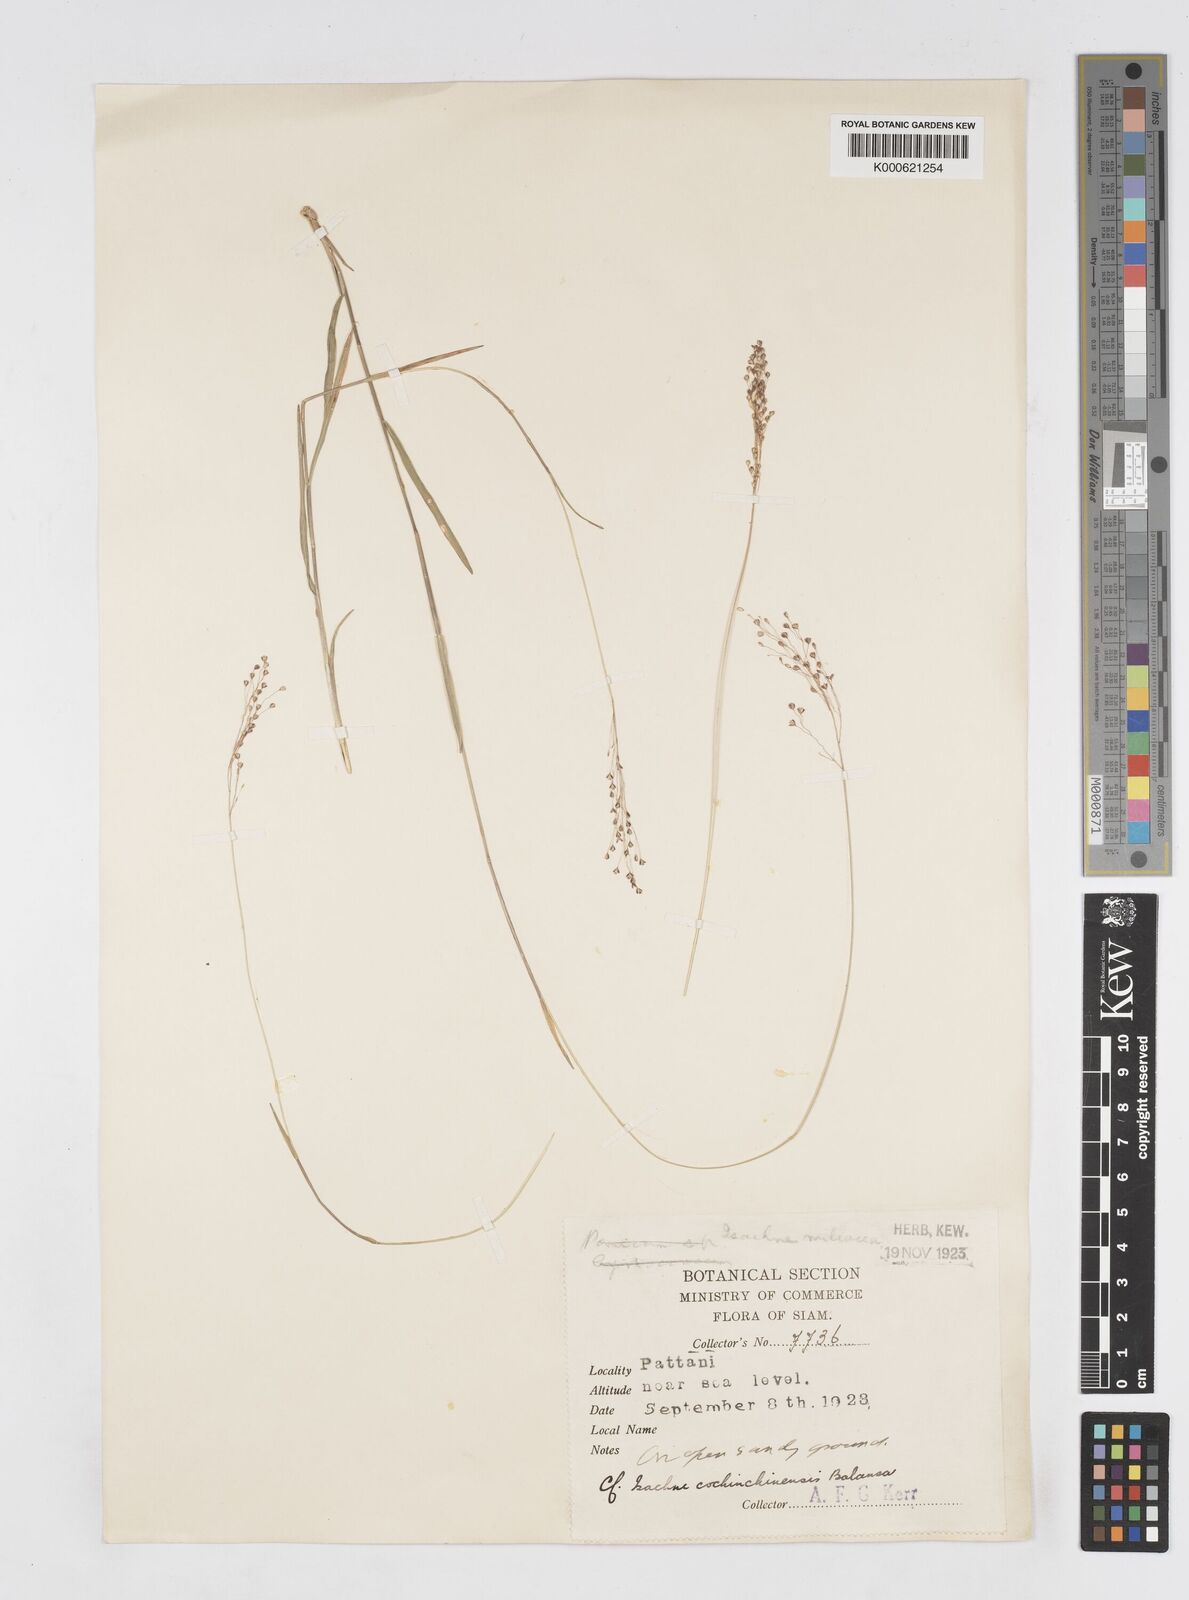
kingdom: Plantae
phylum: Tracheophyta
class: Liliopsida
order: Poales
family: Poaceae
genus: Isachne
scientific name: Isachne cochinchinensis
